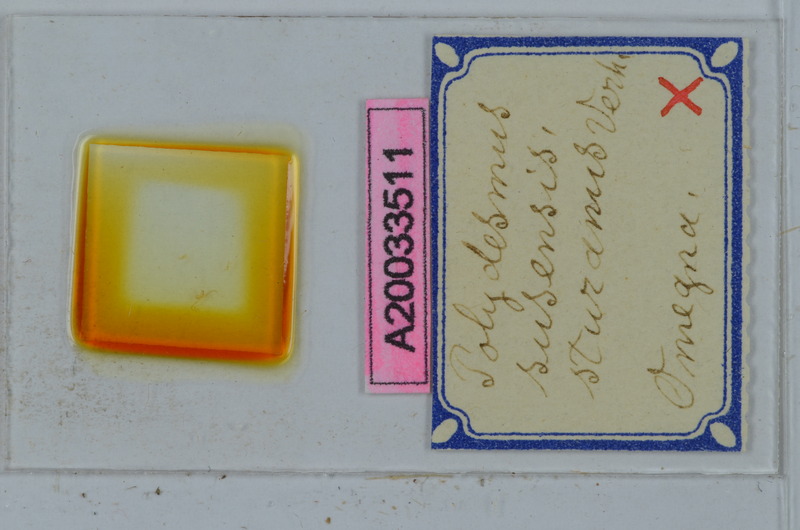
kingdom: Animalia
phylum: Arthropoda
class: Diplopoda
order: Polydesmida
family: Polydesmidae
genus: Polydesmus
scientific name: Polydesmus susensis
